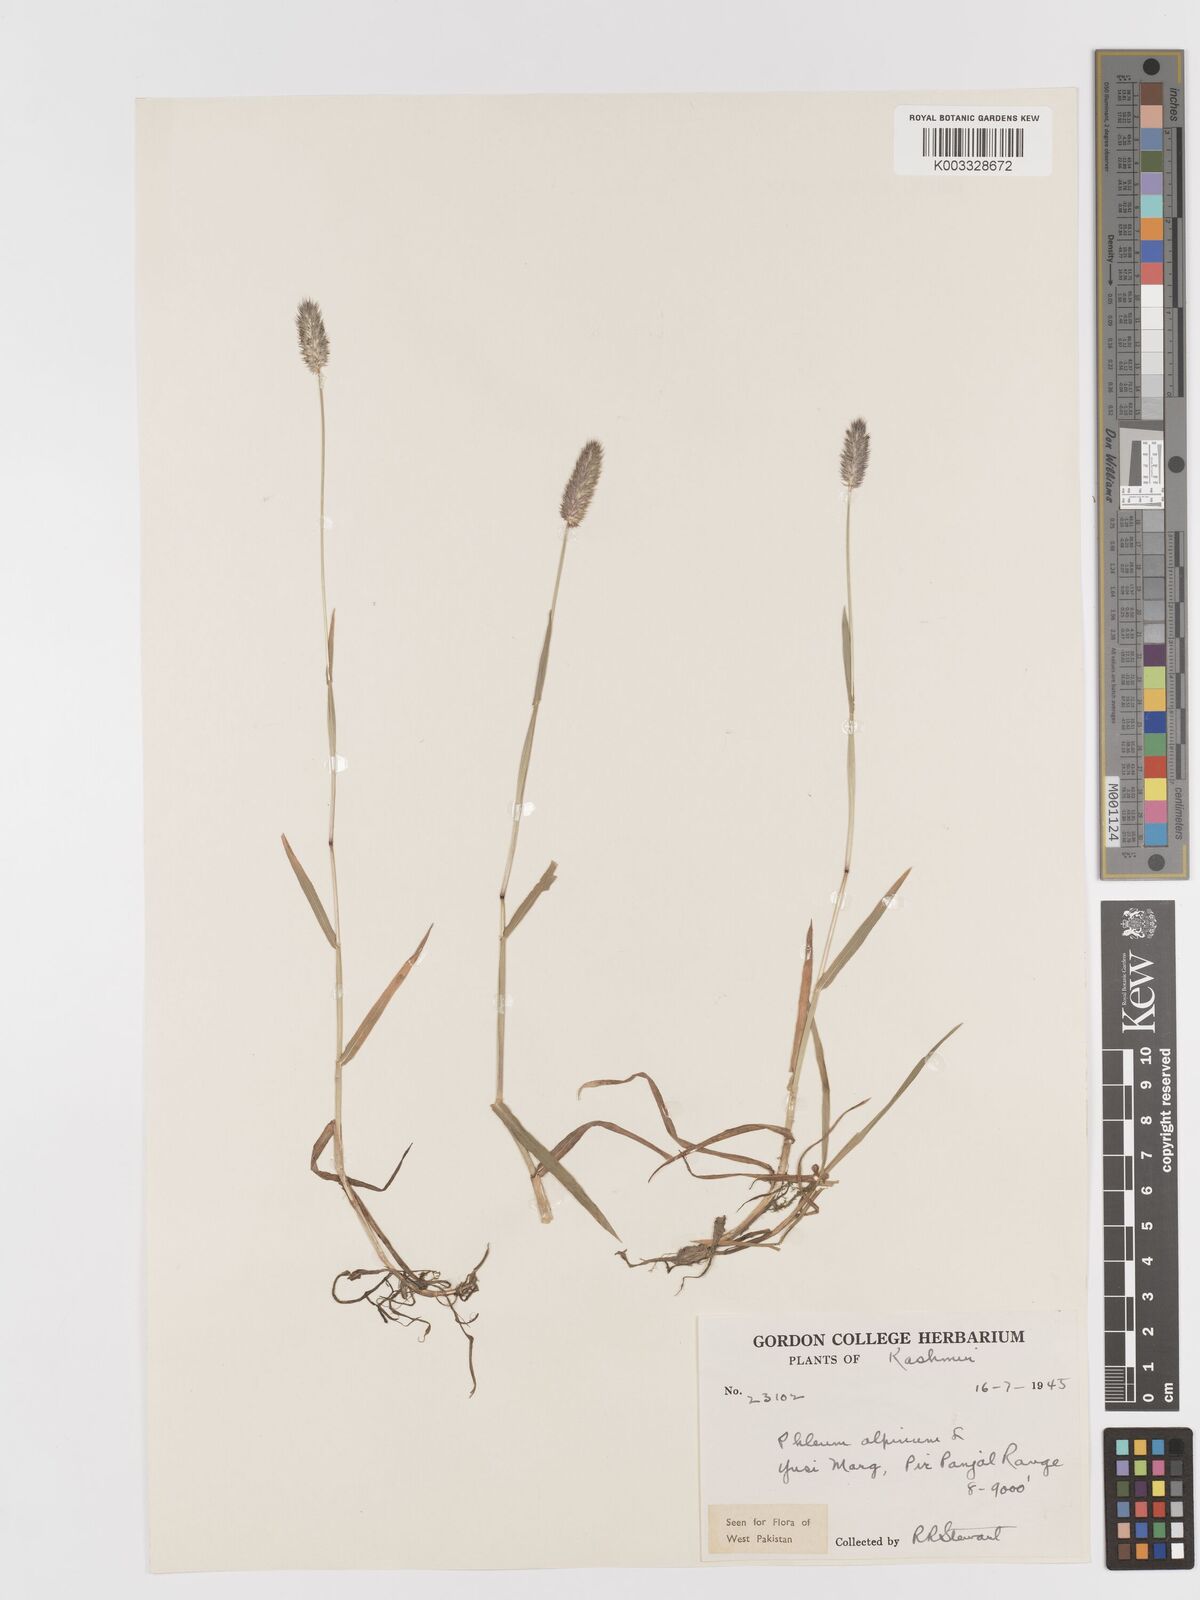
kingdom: Plantae
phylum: Tracheophyta
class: Liliopsida
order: Poales
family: Poaceae
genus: Phleum
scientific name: Phleum alpinum
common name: Alpine cat's-tail
